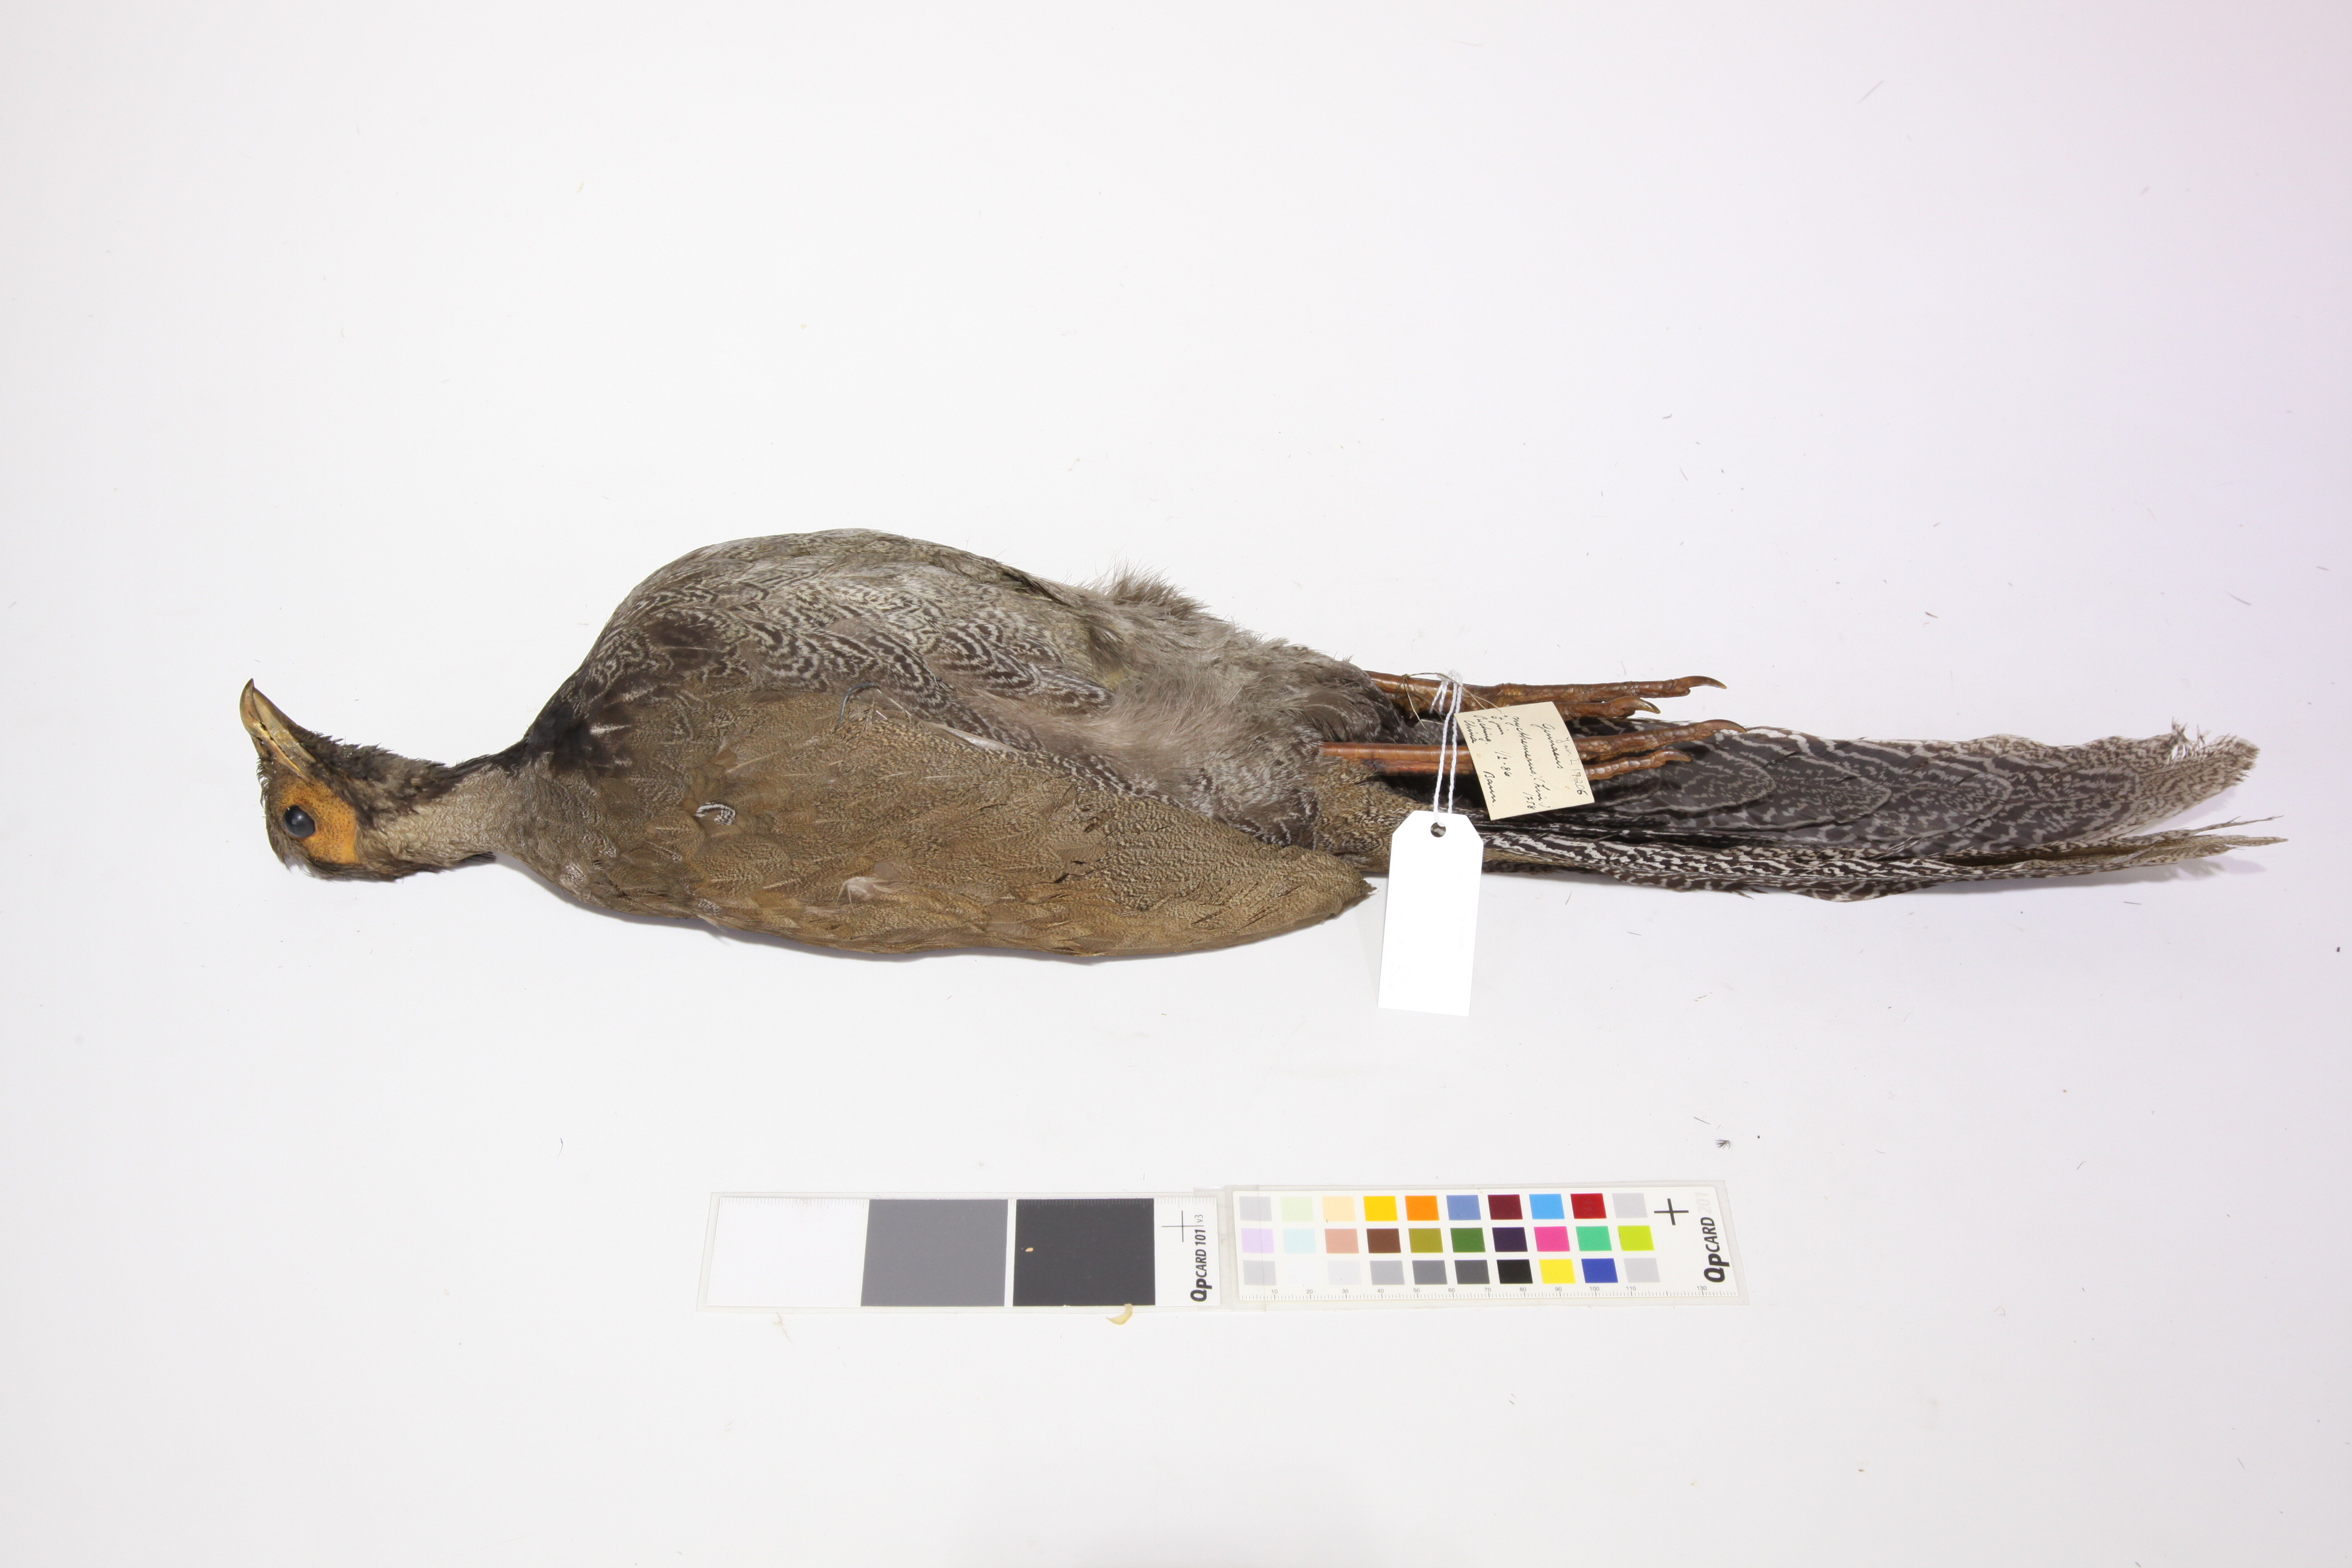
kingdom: Animalia
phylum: Chordata
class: Aves
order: Galliformes
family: Phasianidae
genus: Lophura
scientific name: Lophura nycthemera
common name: Silver pheasant
